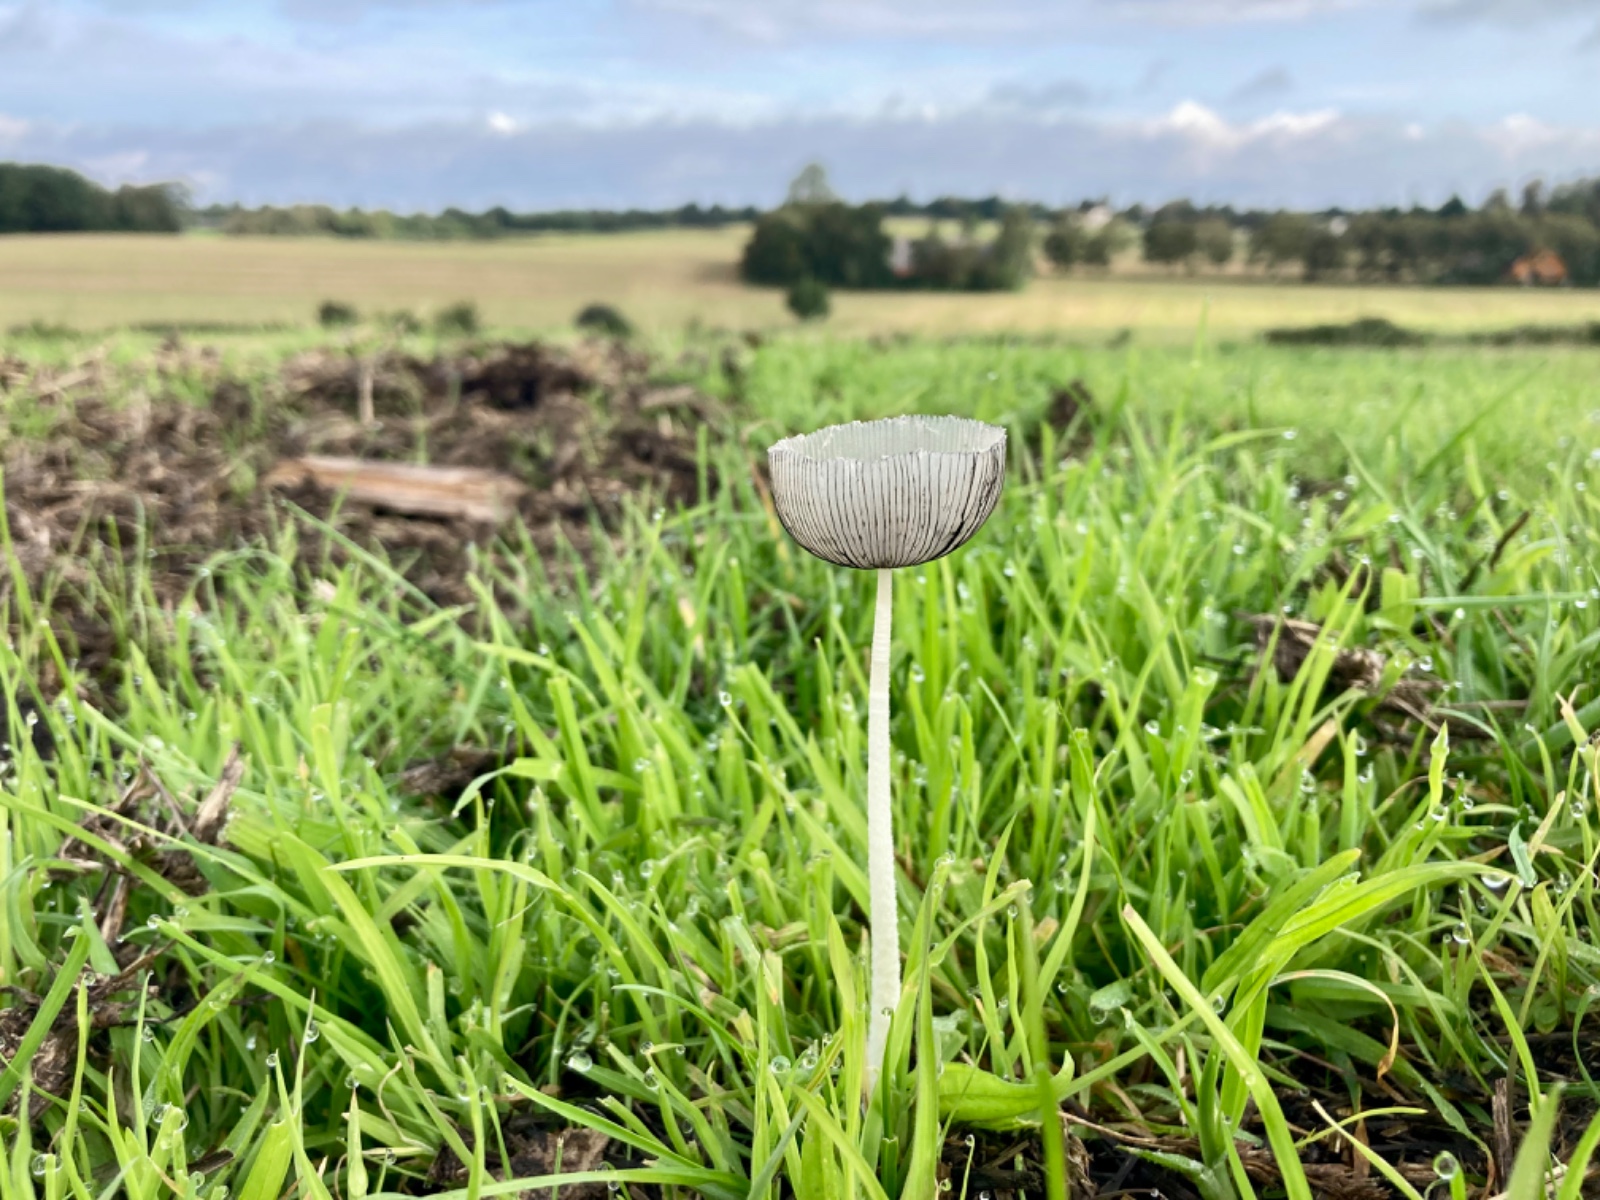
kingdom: Fungi
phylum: Basidiomycota
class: Agaricomycetes
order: Agaricales
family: Psathyrellaceae
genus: Coprinopsis
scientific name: Coprinopsis lagopus
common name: dunstokket blækhat
